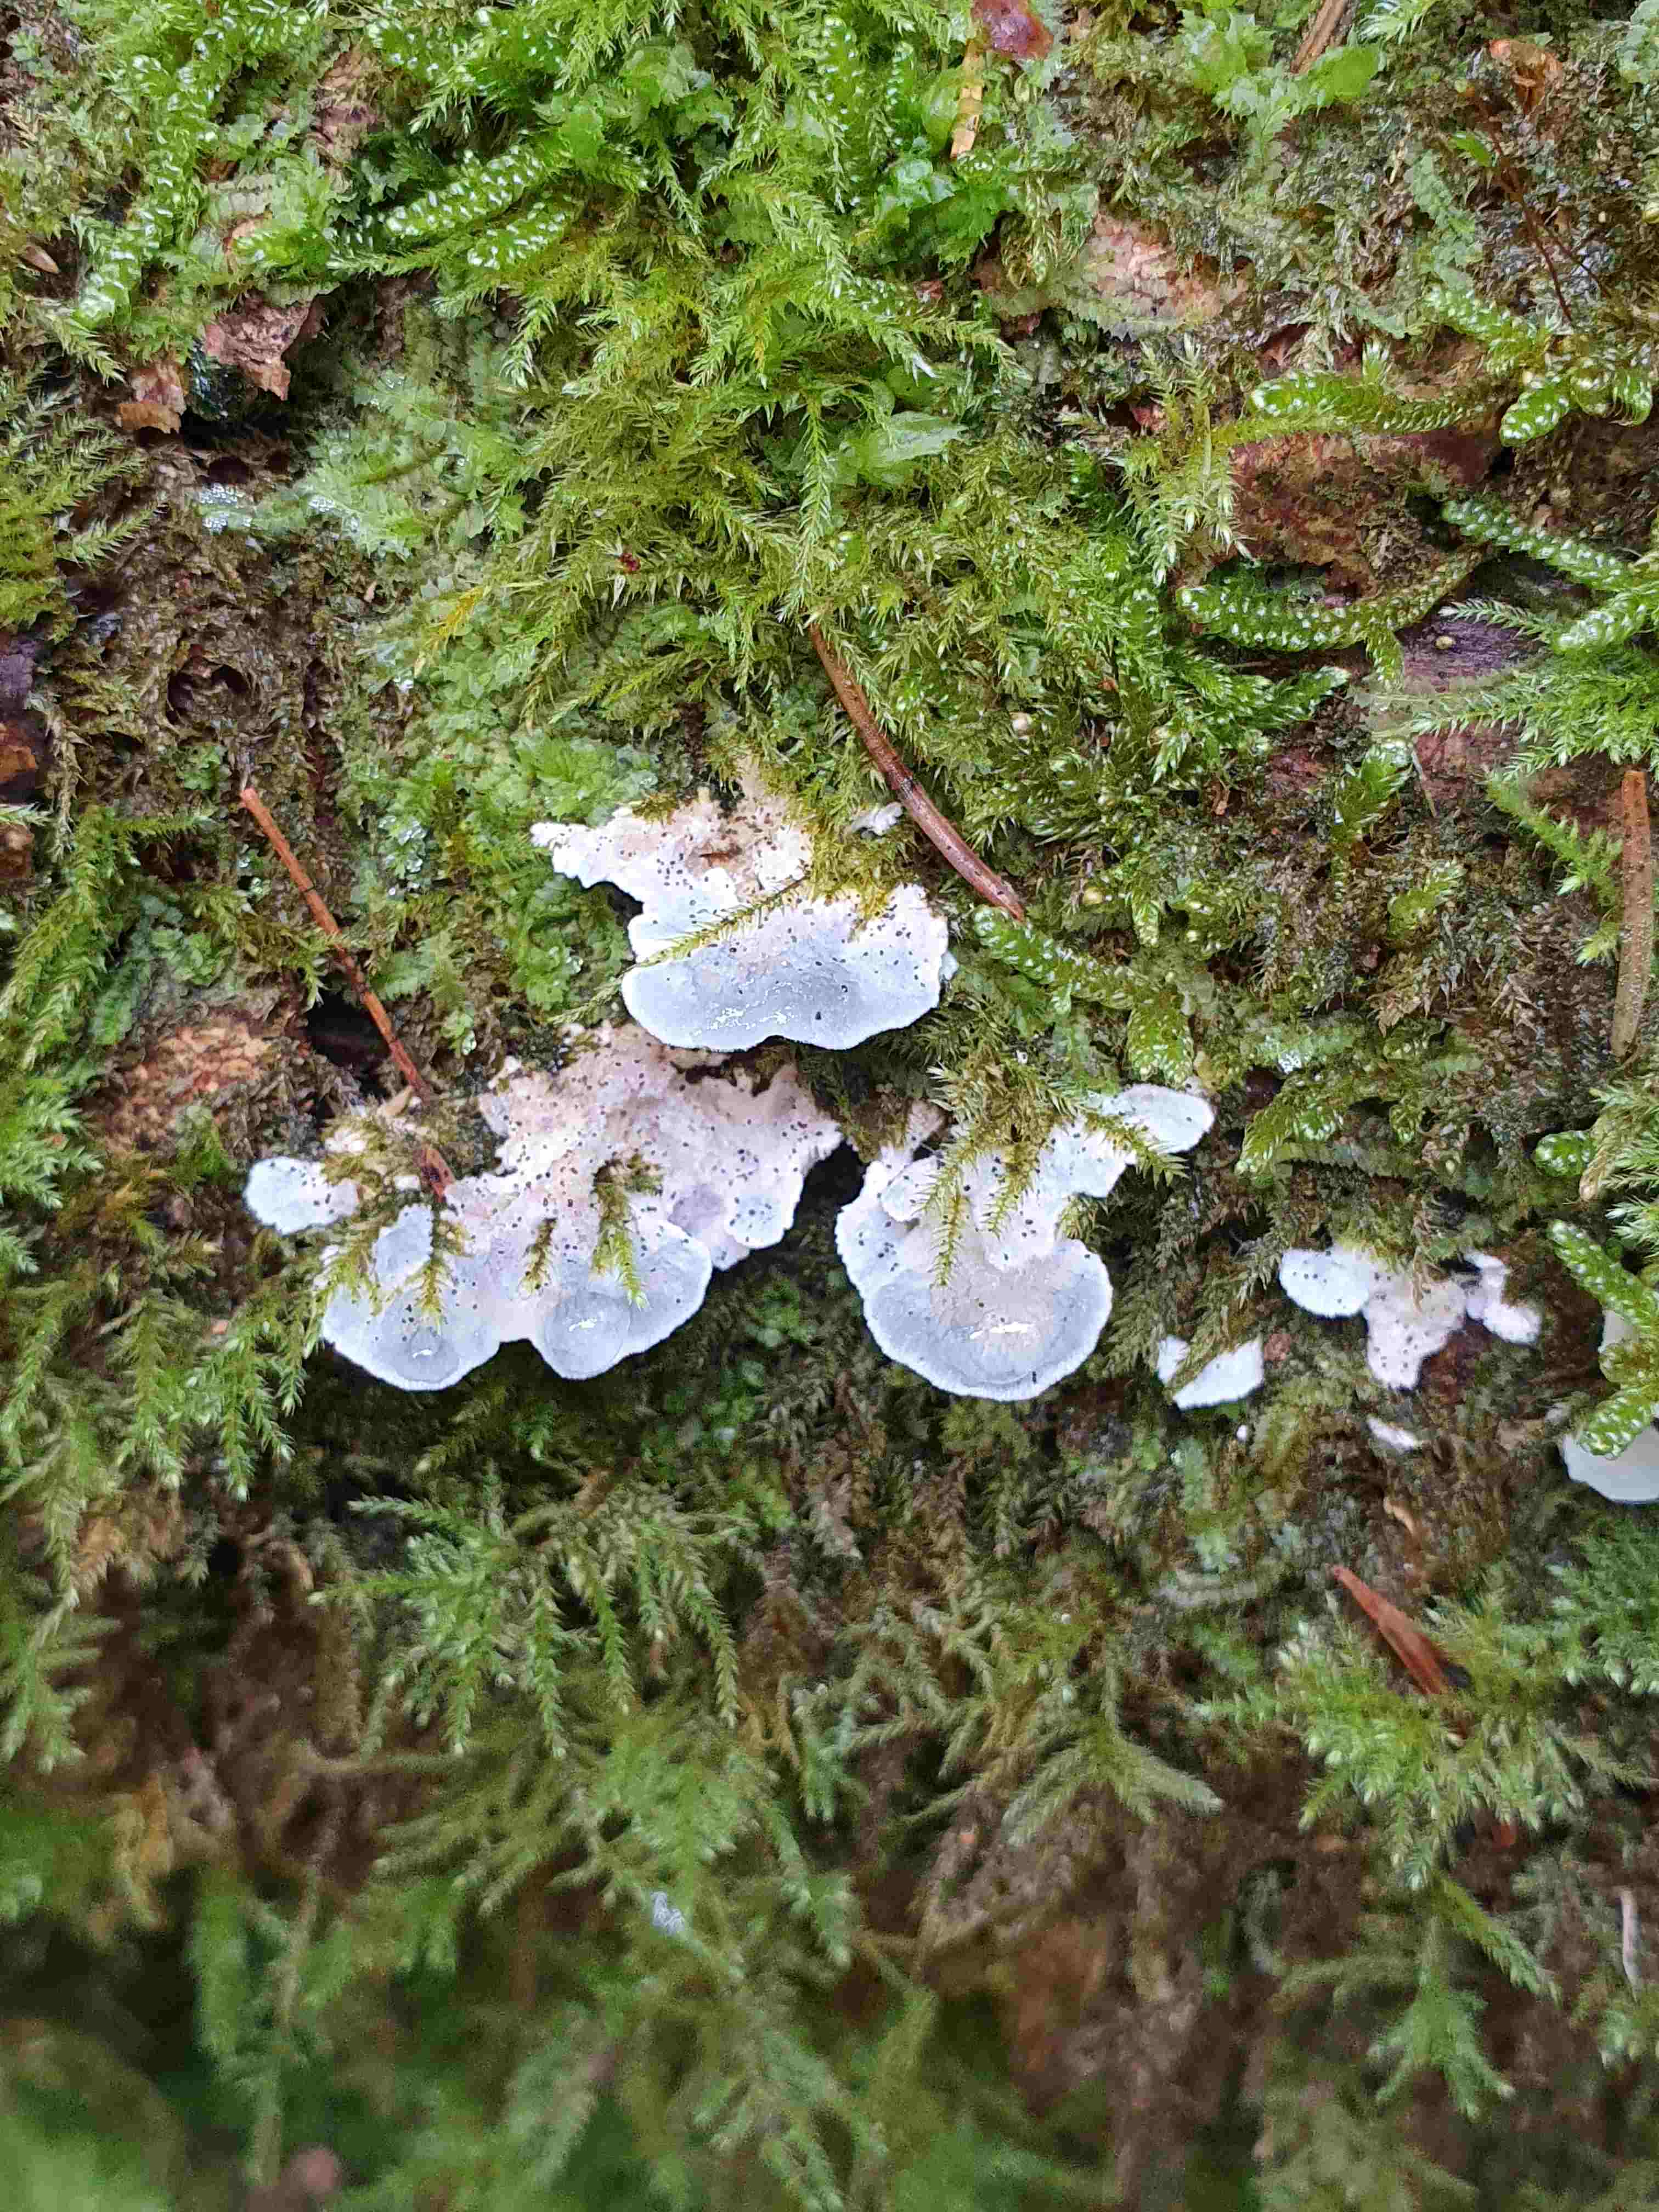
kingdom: Fungi
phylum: Basidiomycota
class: Agaricomycetes
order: Polyporales
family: Polyporaceae
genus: Cyanosporus
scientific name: Cyanosporus caesius
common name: blålig kødporesvamp
